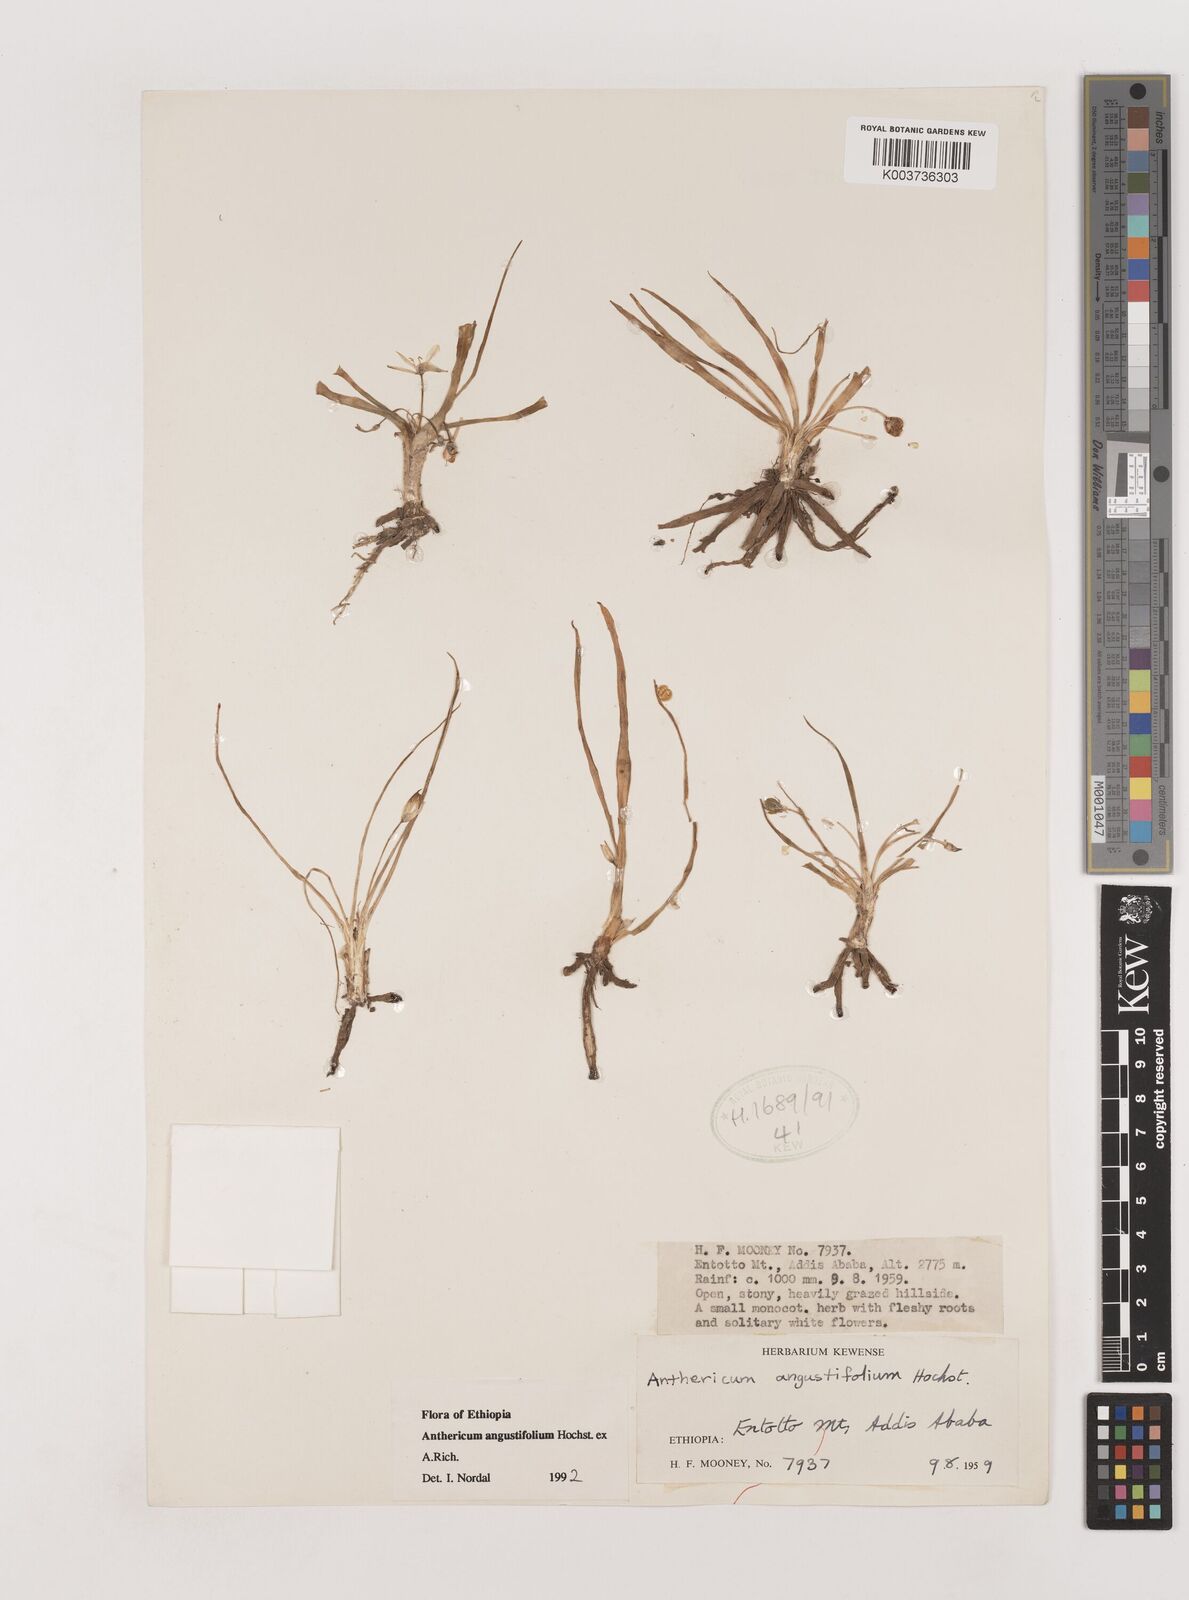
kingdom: Plantae
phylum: Tracheophyta
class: Liliopsida
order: Asparagales
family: Asparagaceae
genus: Anthericum
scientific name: Anthericum angustifolium
